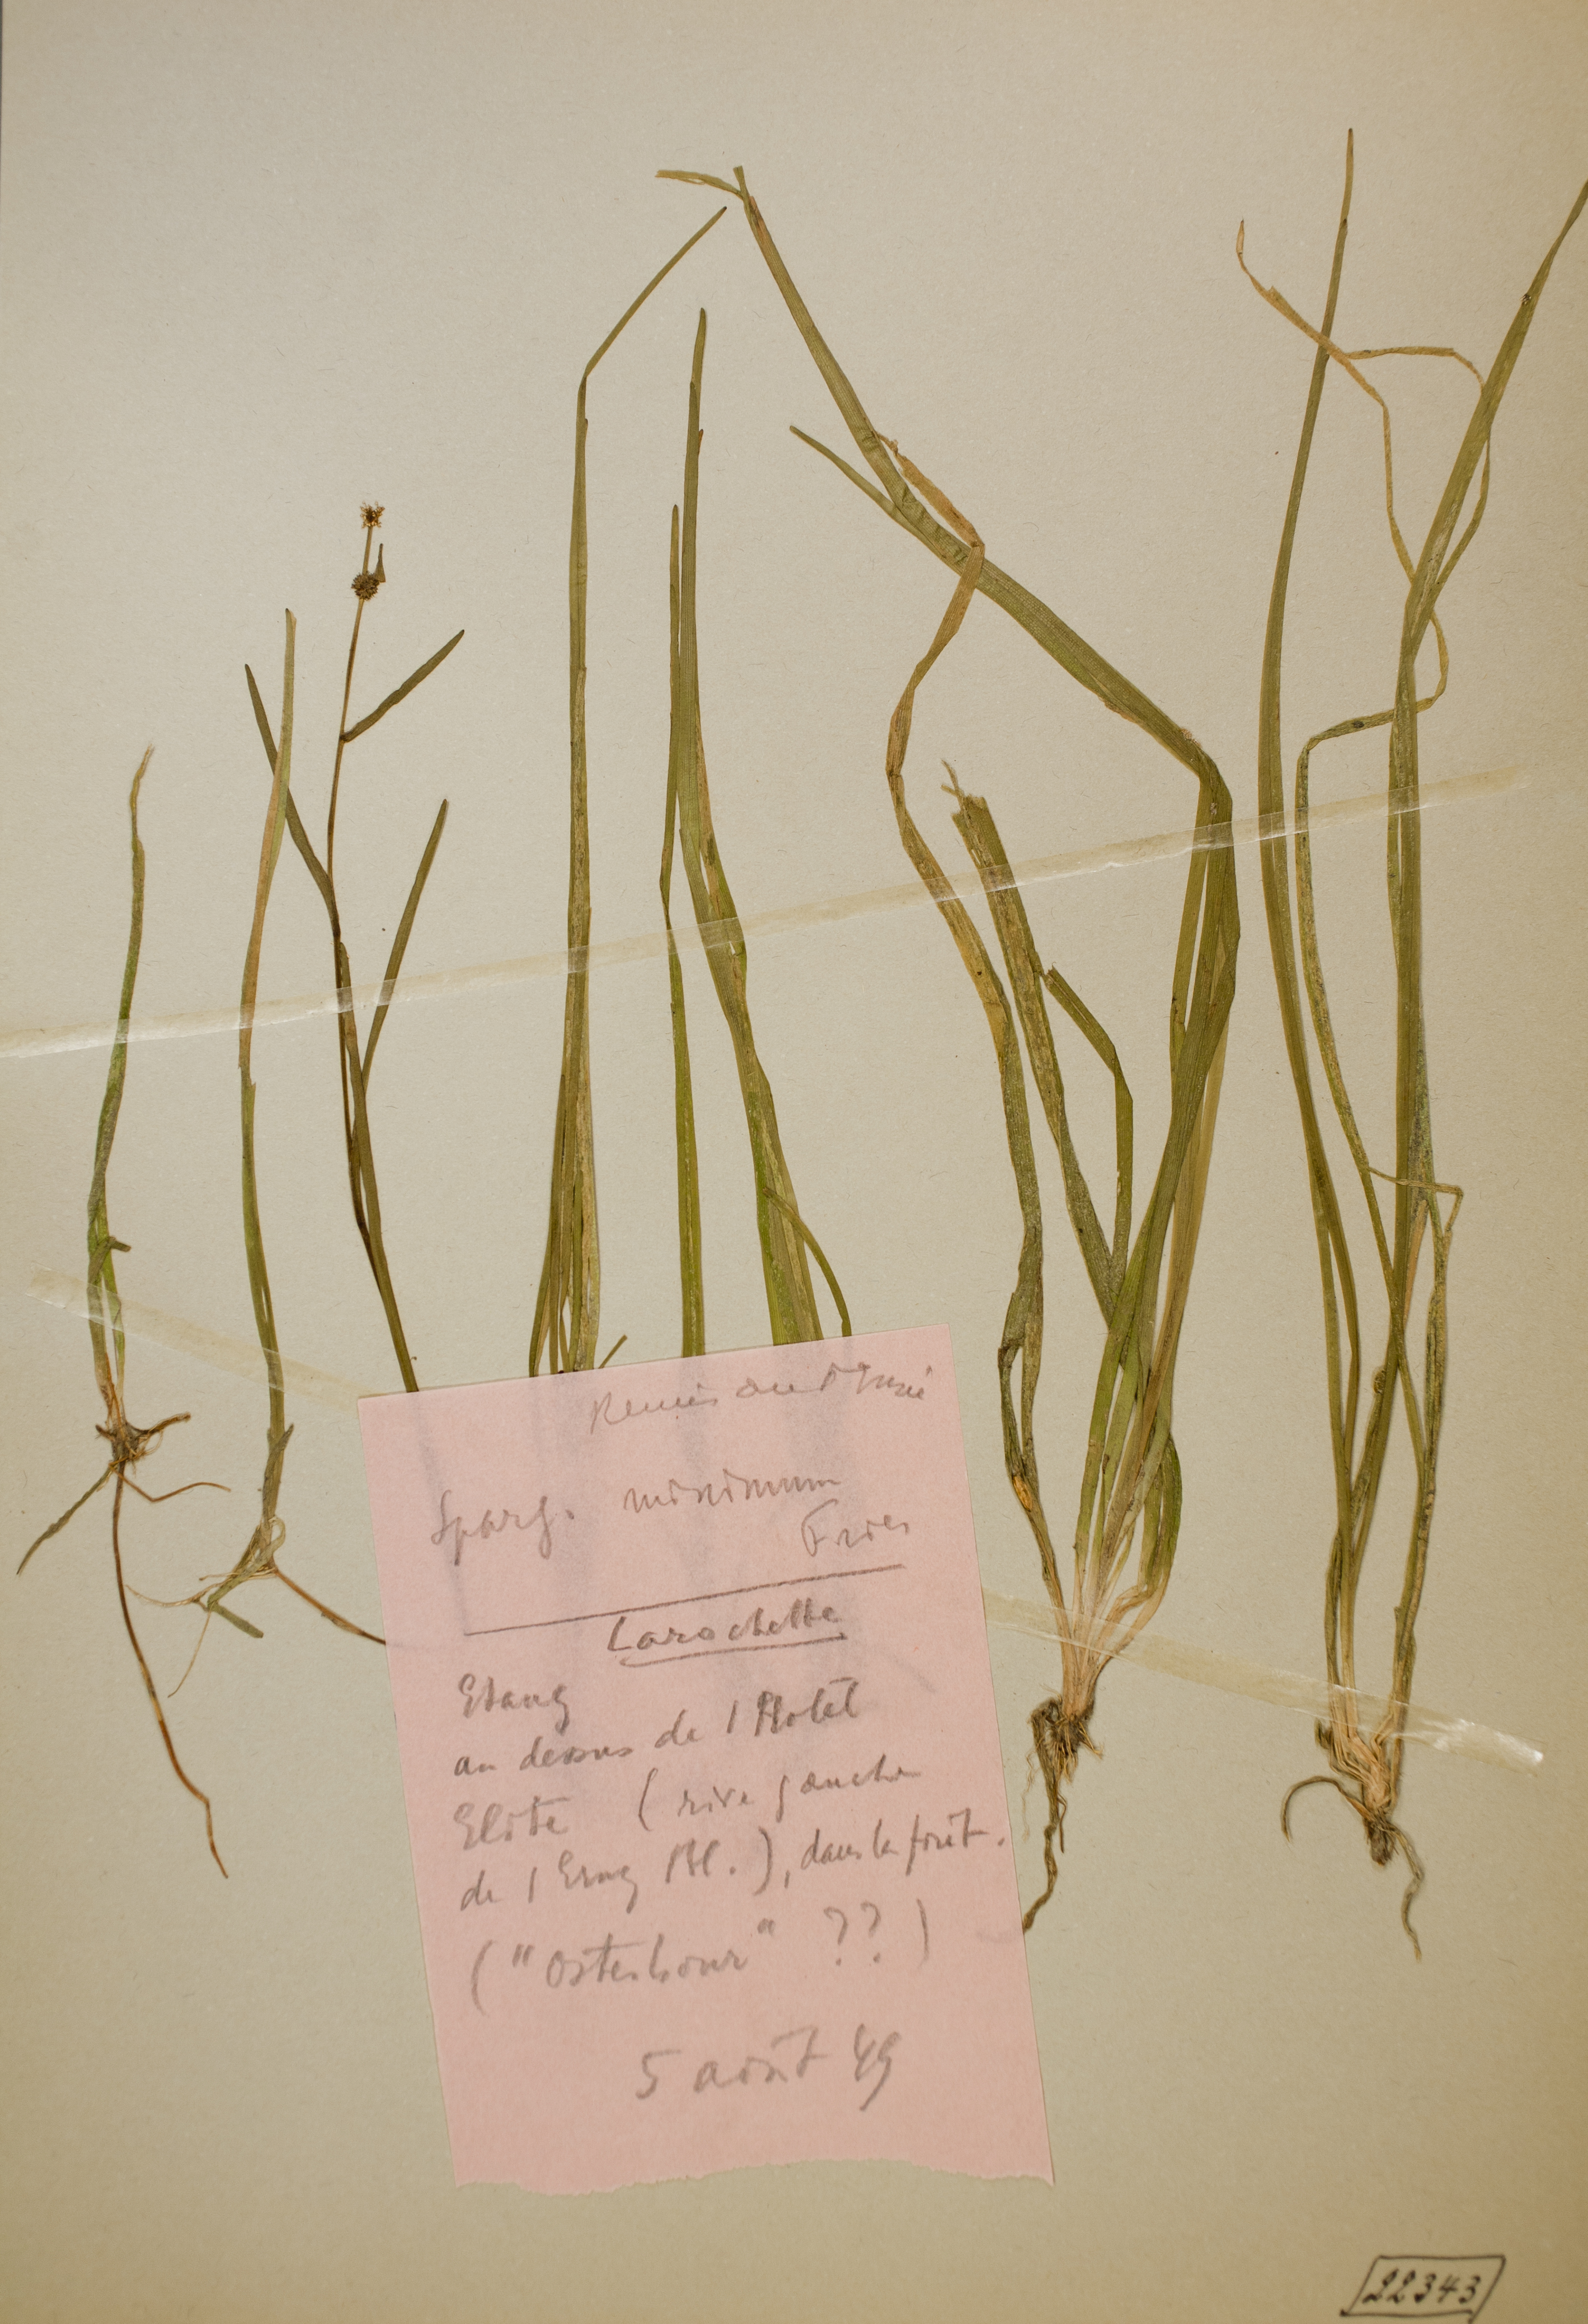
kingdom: Plantae
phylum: Tracheophyta
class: Liliopsida
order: Poales
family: Typhaceae
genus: Sparganium
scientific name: Sparganium natans
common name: Least bur-reed
